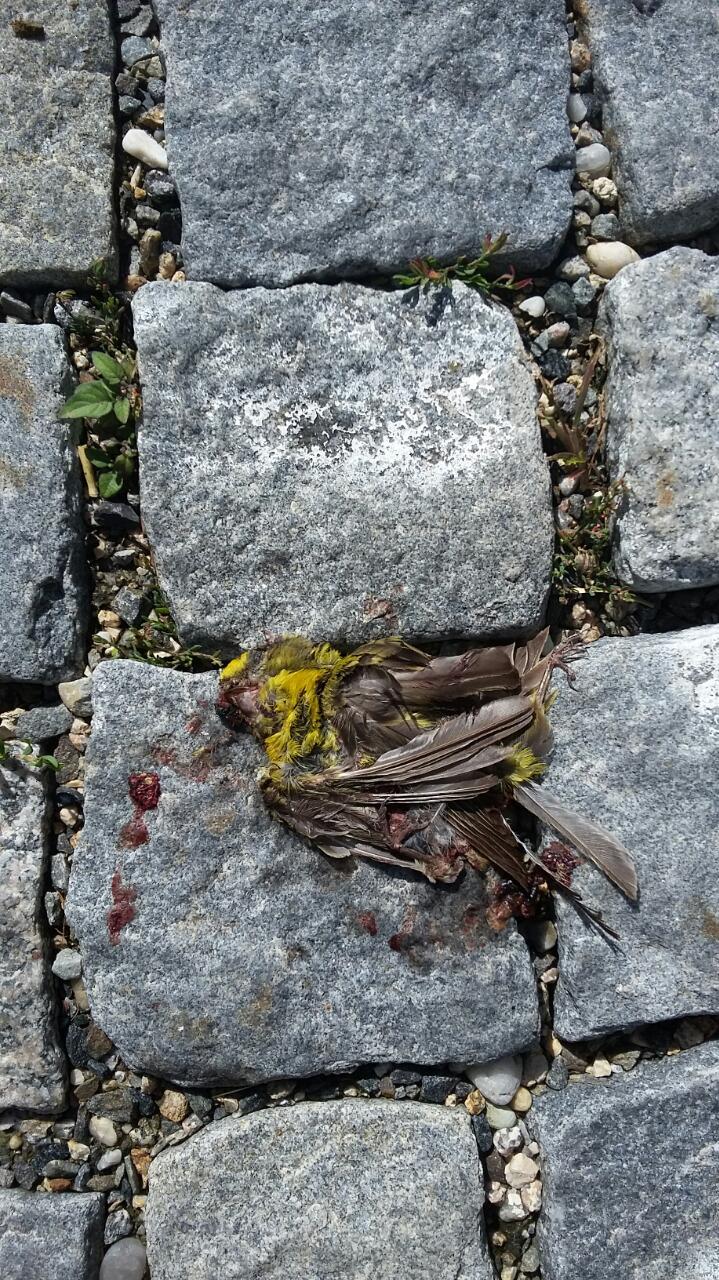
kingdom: Animalia
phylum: Chordata
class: Aves
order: Passeriformes
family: Fringillidae
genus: Serinus
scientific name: Serinus serinus
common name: European serin
